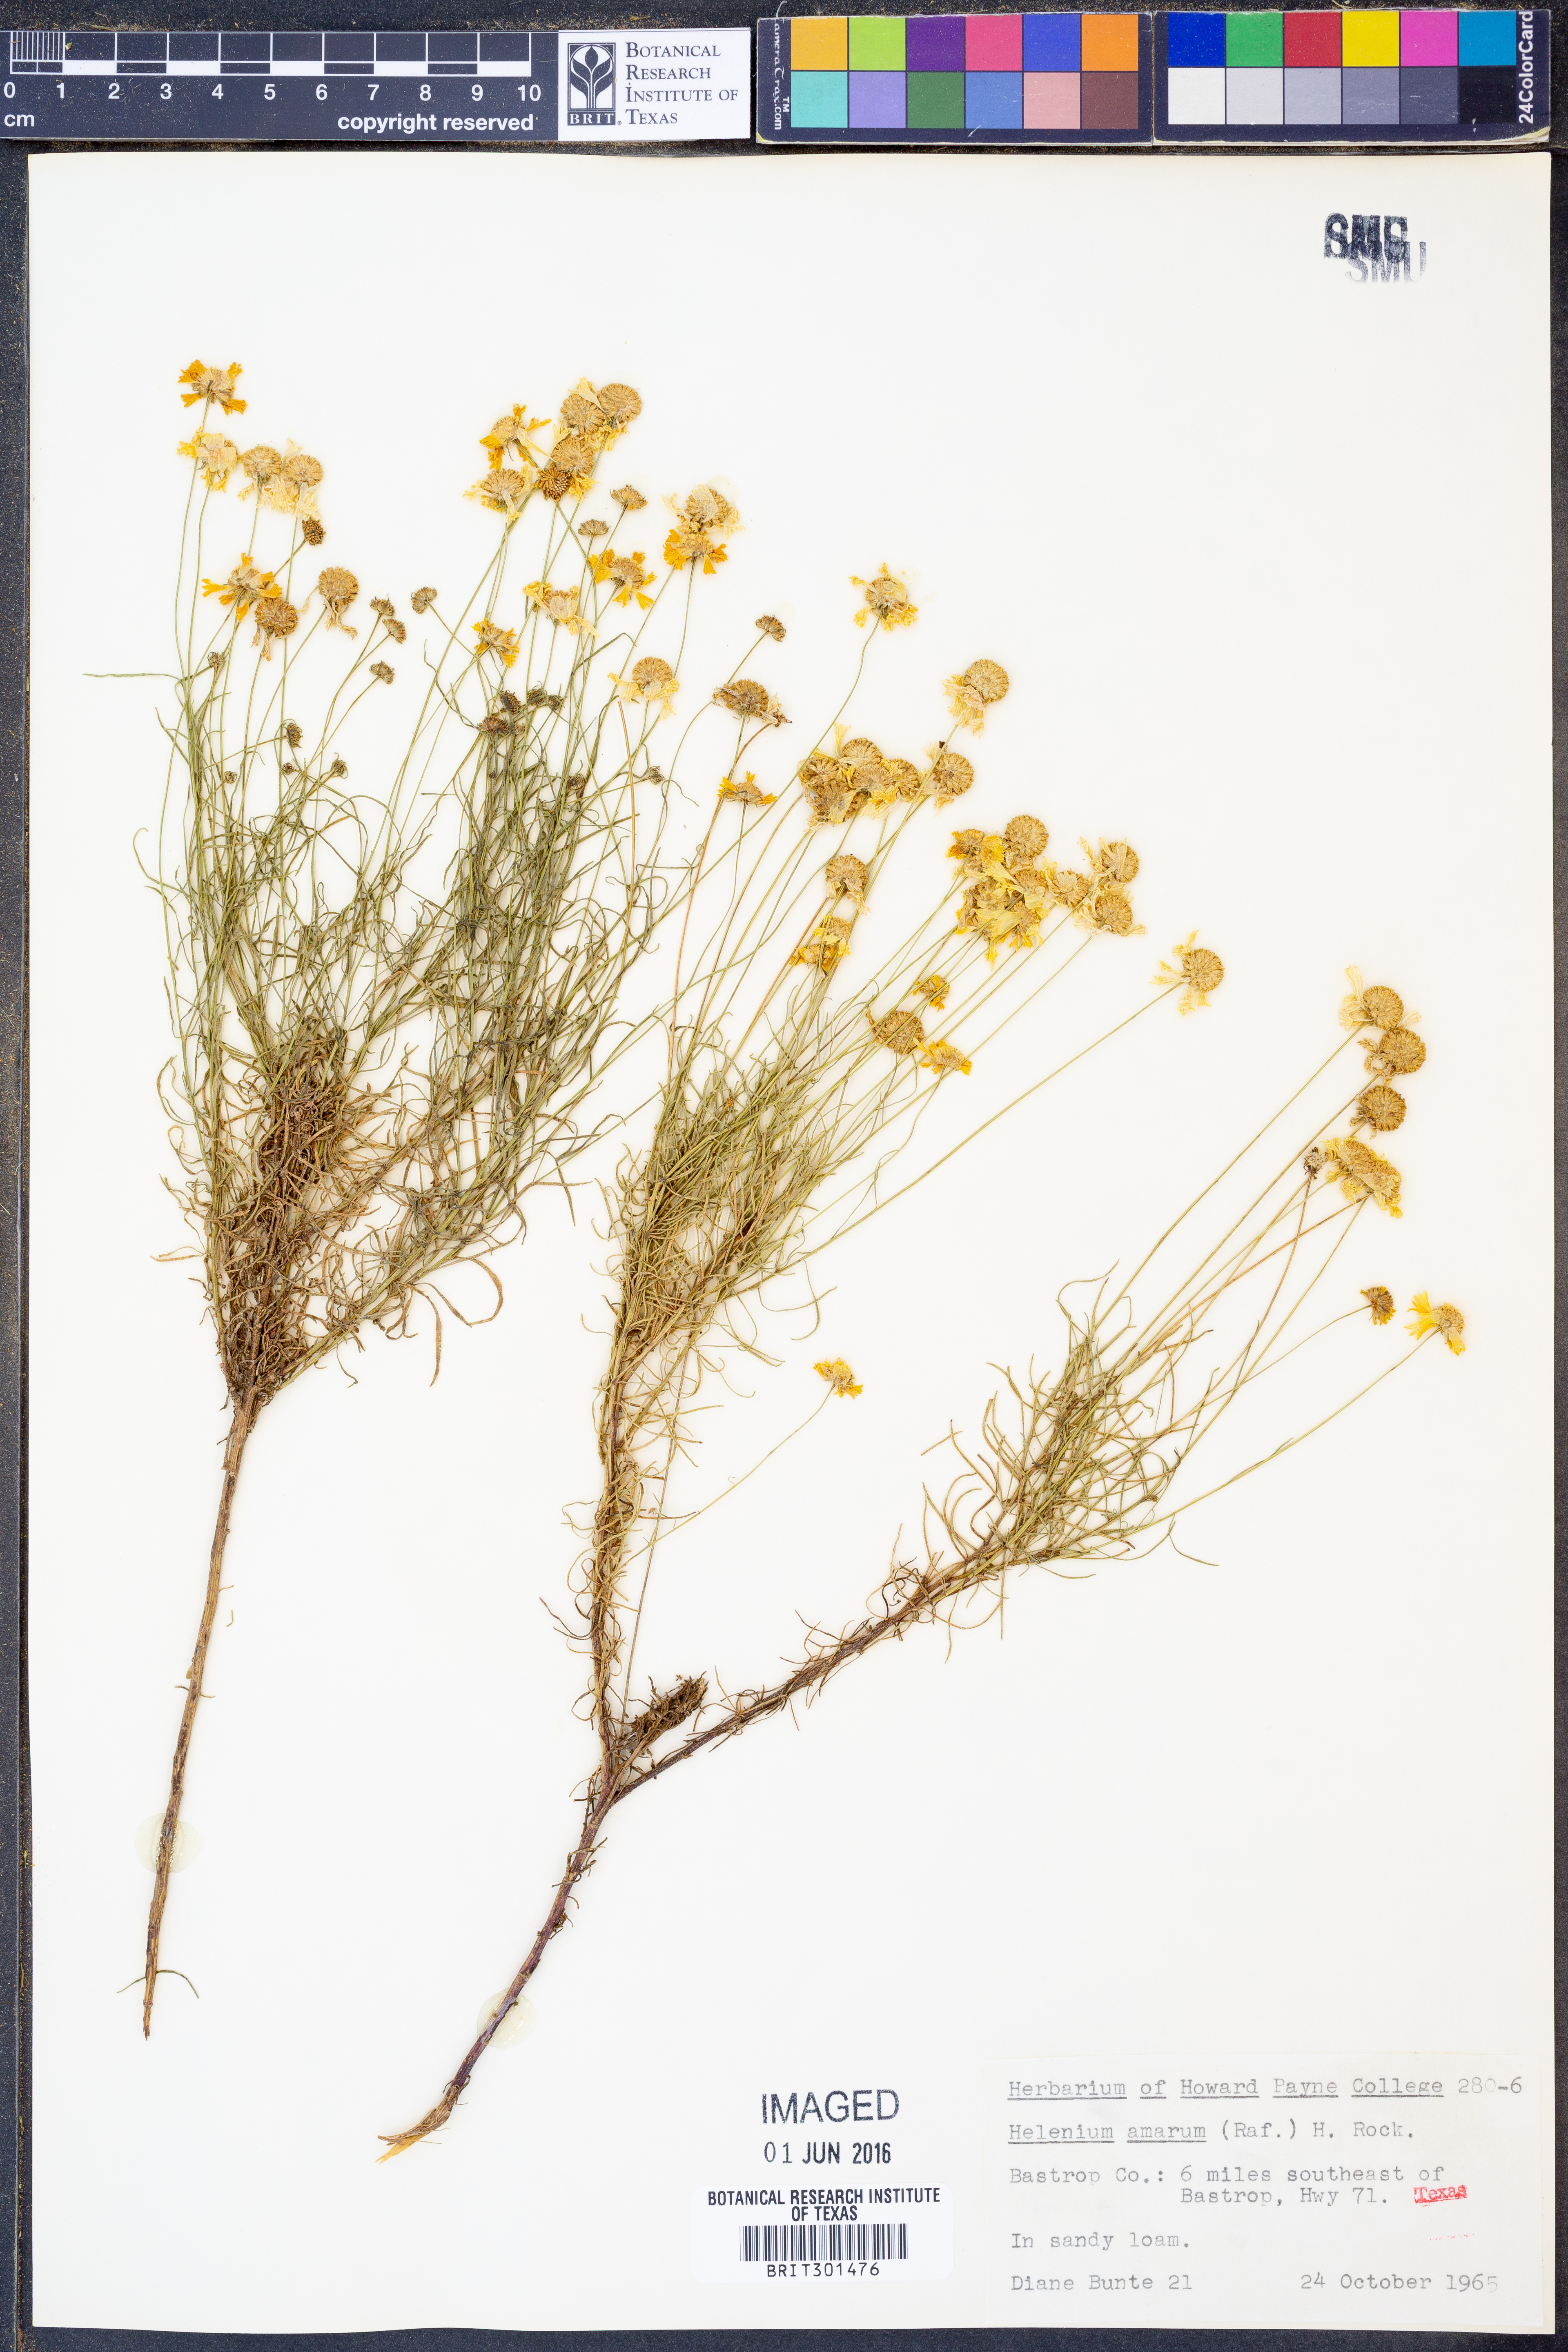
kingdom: Plantae
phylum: Tracheophyta
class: Magnoliopsida
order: Asterales
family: Asteraceae
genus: Helenium
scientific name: Helenium amarum
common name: Bitter sneezeweed
